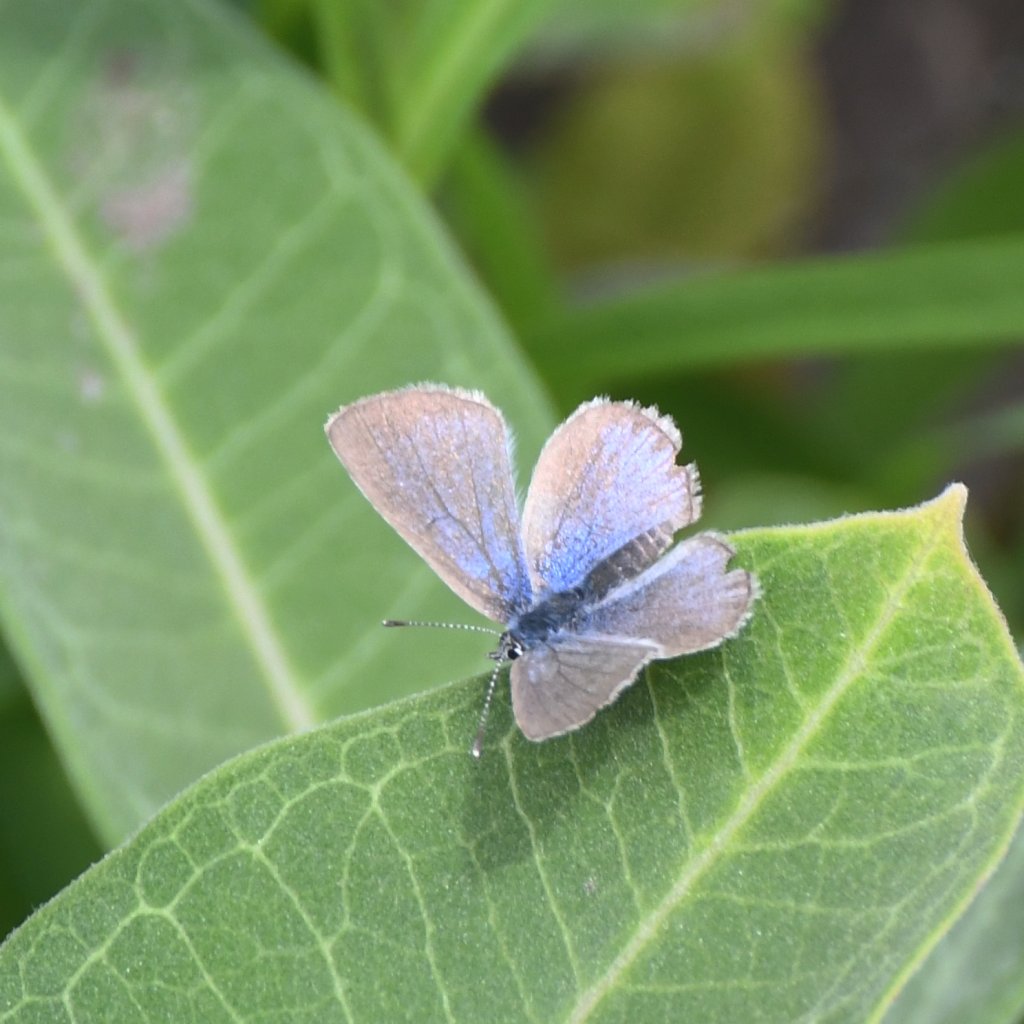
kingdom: Animalia
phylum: Arthropoda
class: Insecta
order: Lepidoptera
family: Lycaenidae
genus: Glaucopsyche
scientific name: Glaucopsyche lygdamus
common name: Silvery Blue
